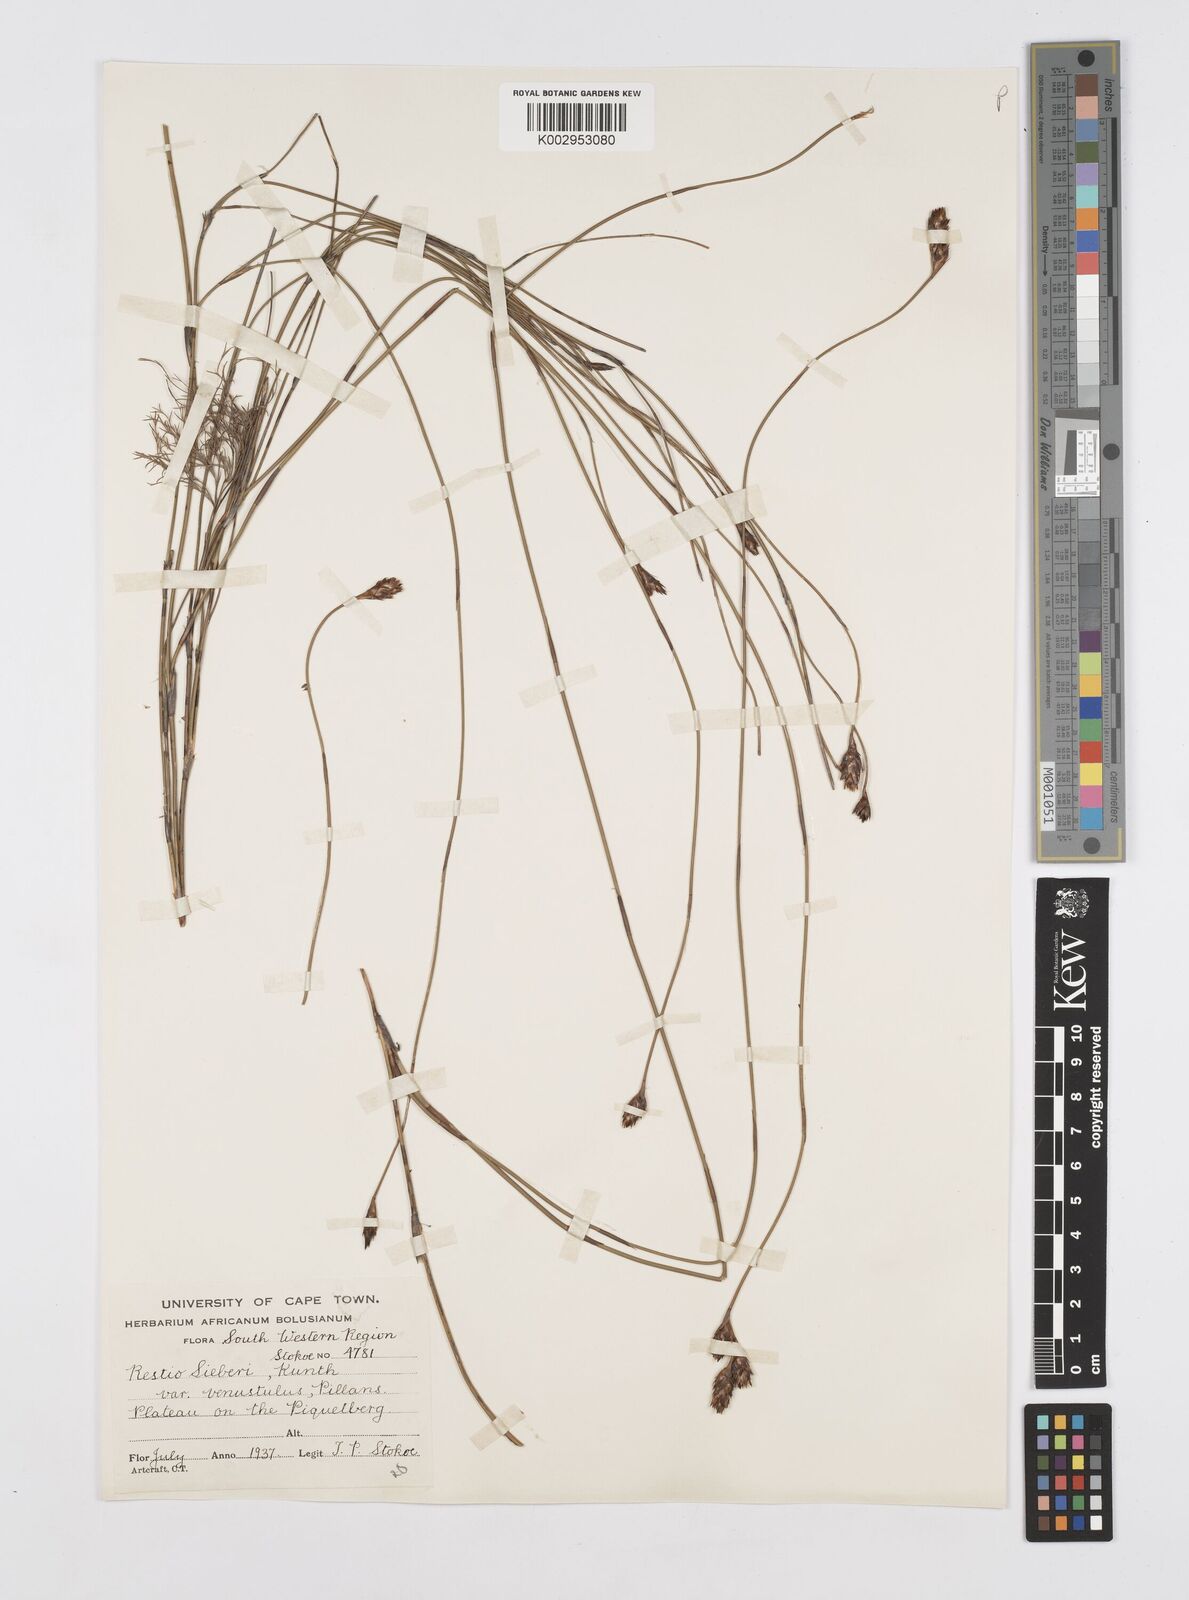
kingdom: Plantae
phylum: Tracheophyta
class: Liliopsida
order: Poales
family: Restionaceae
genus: Restio
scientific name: Restio sieberi
